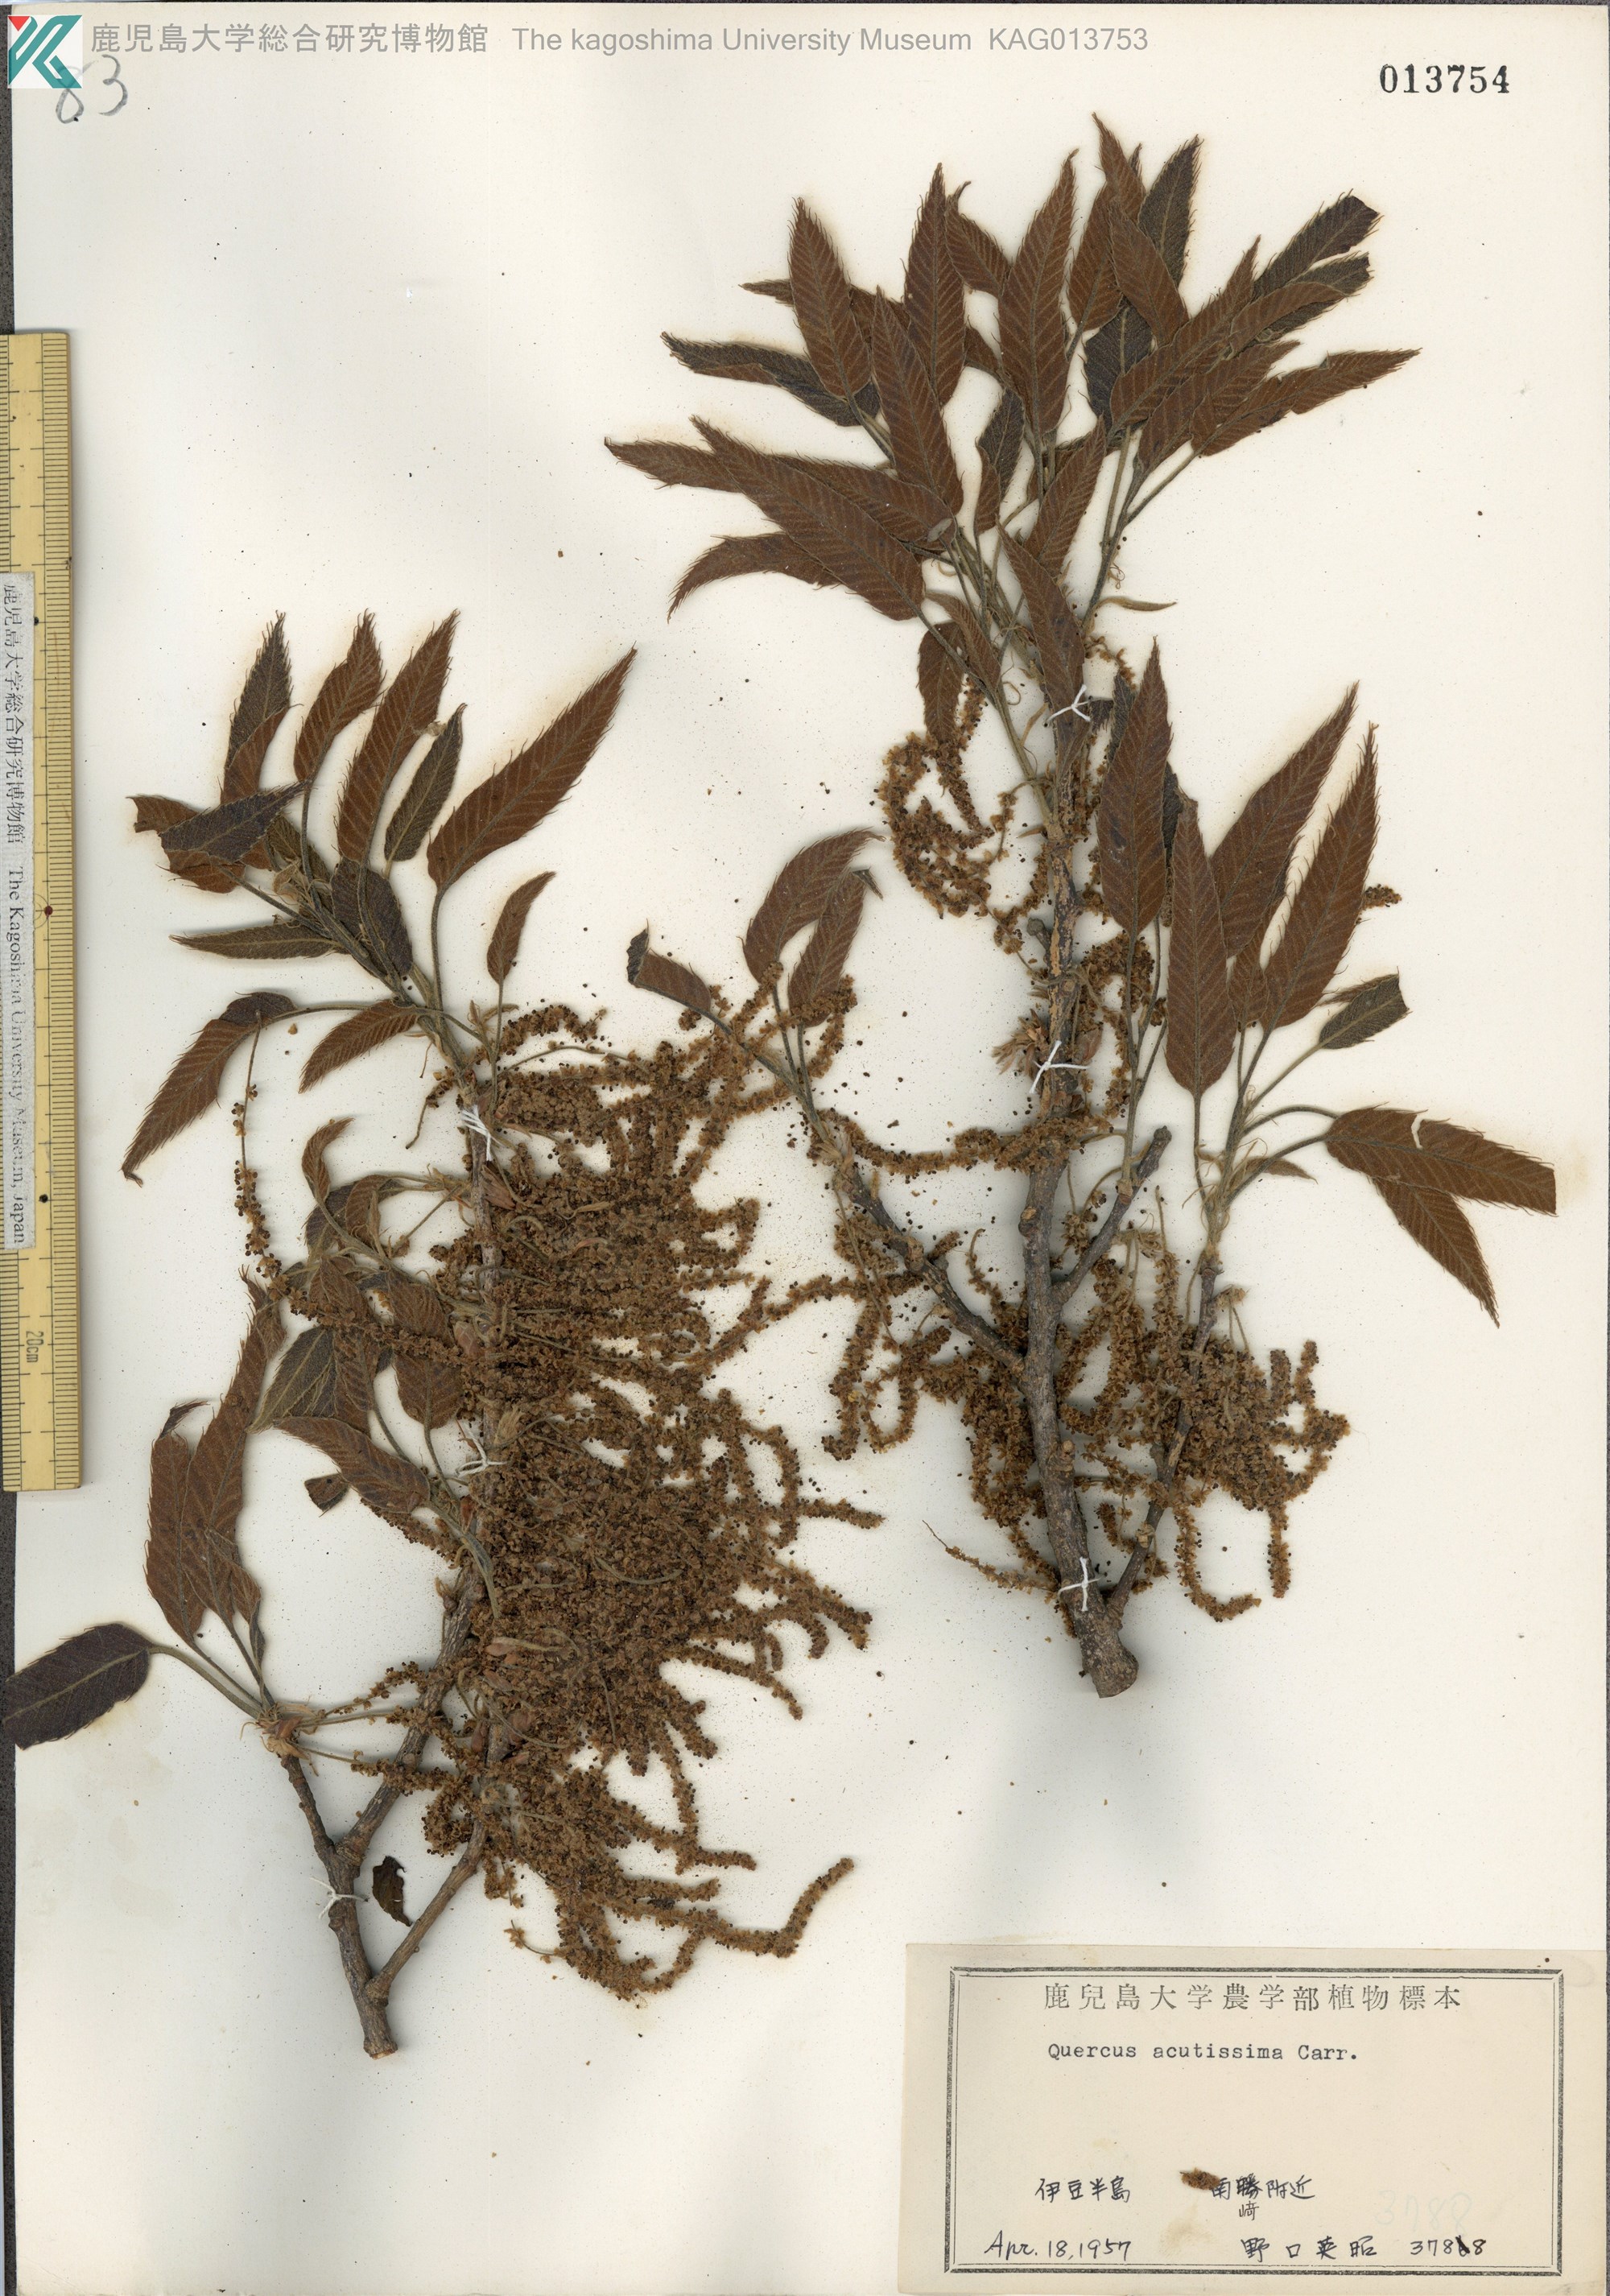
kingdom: Plantae
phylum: Tracheophyta
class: Magnoliopsida
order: Fagales
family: Fagaceae
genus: Quercus
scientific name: Quercus acutissima
